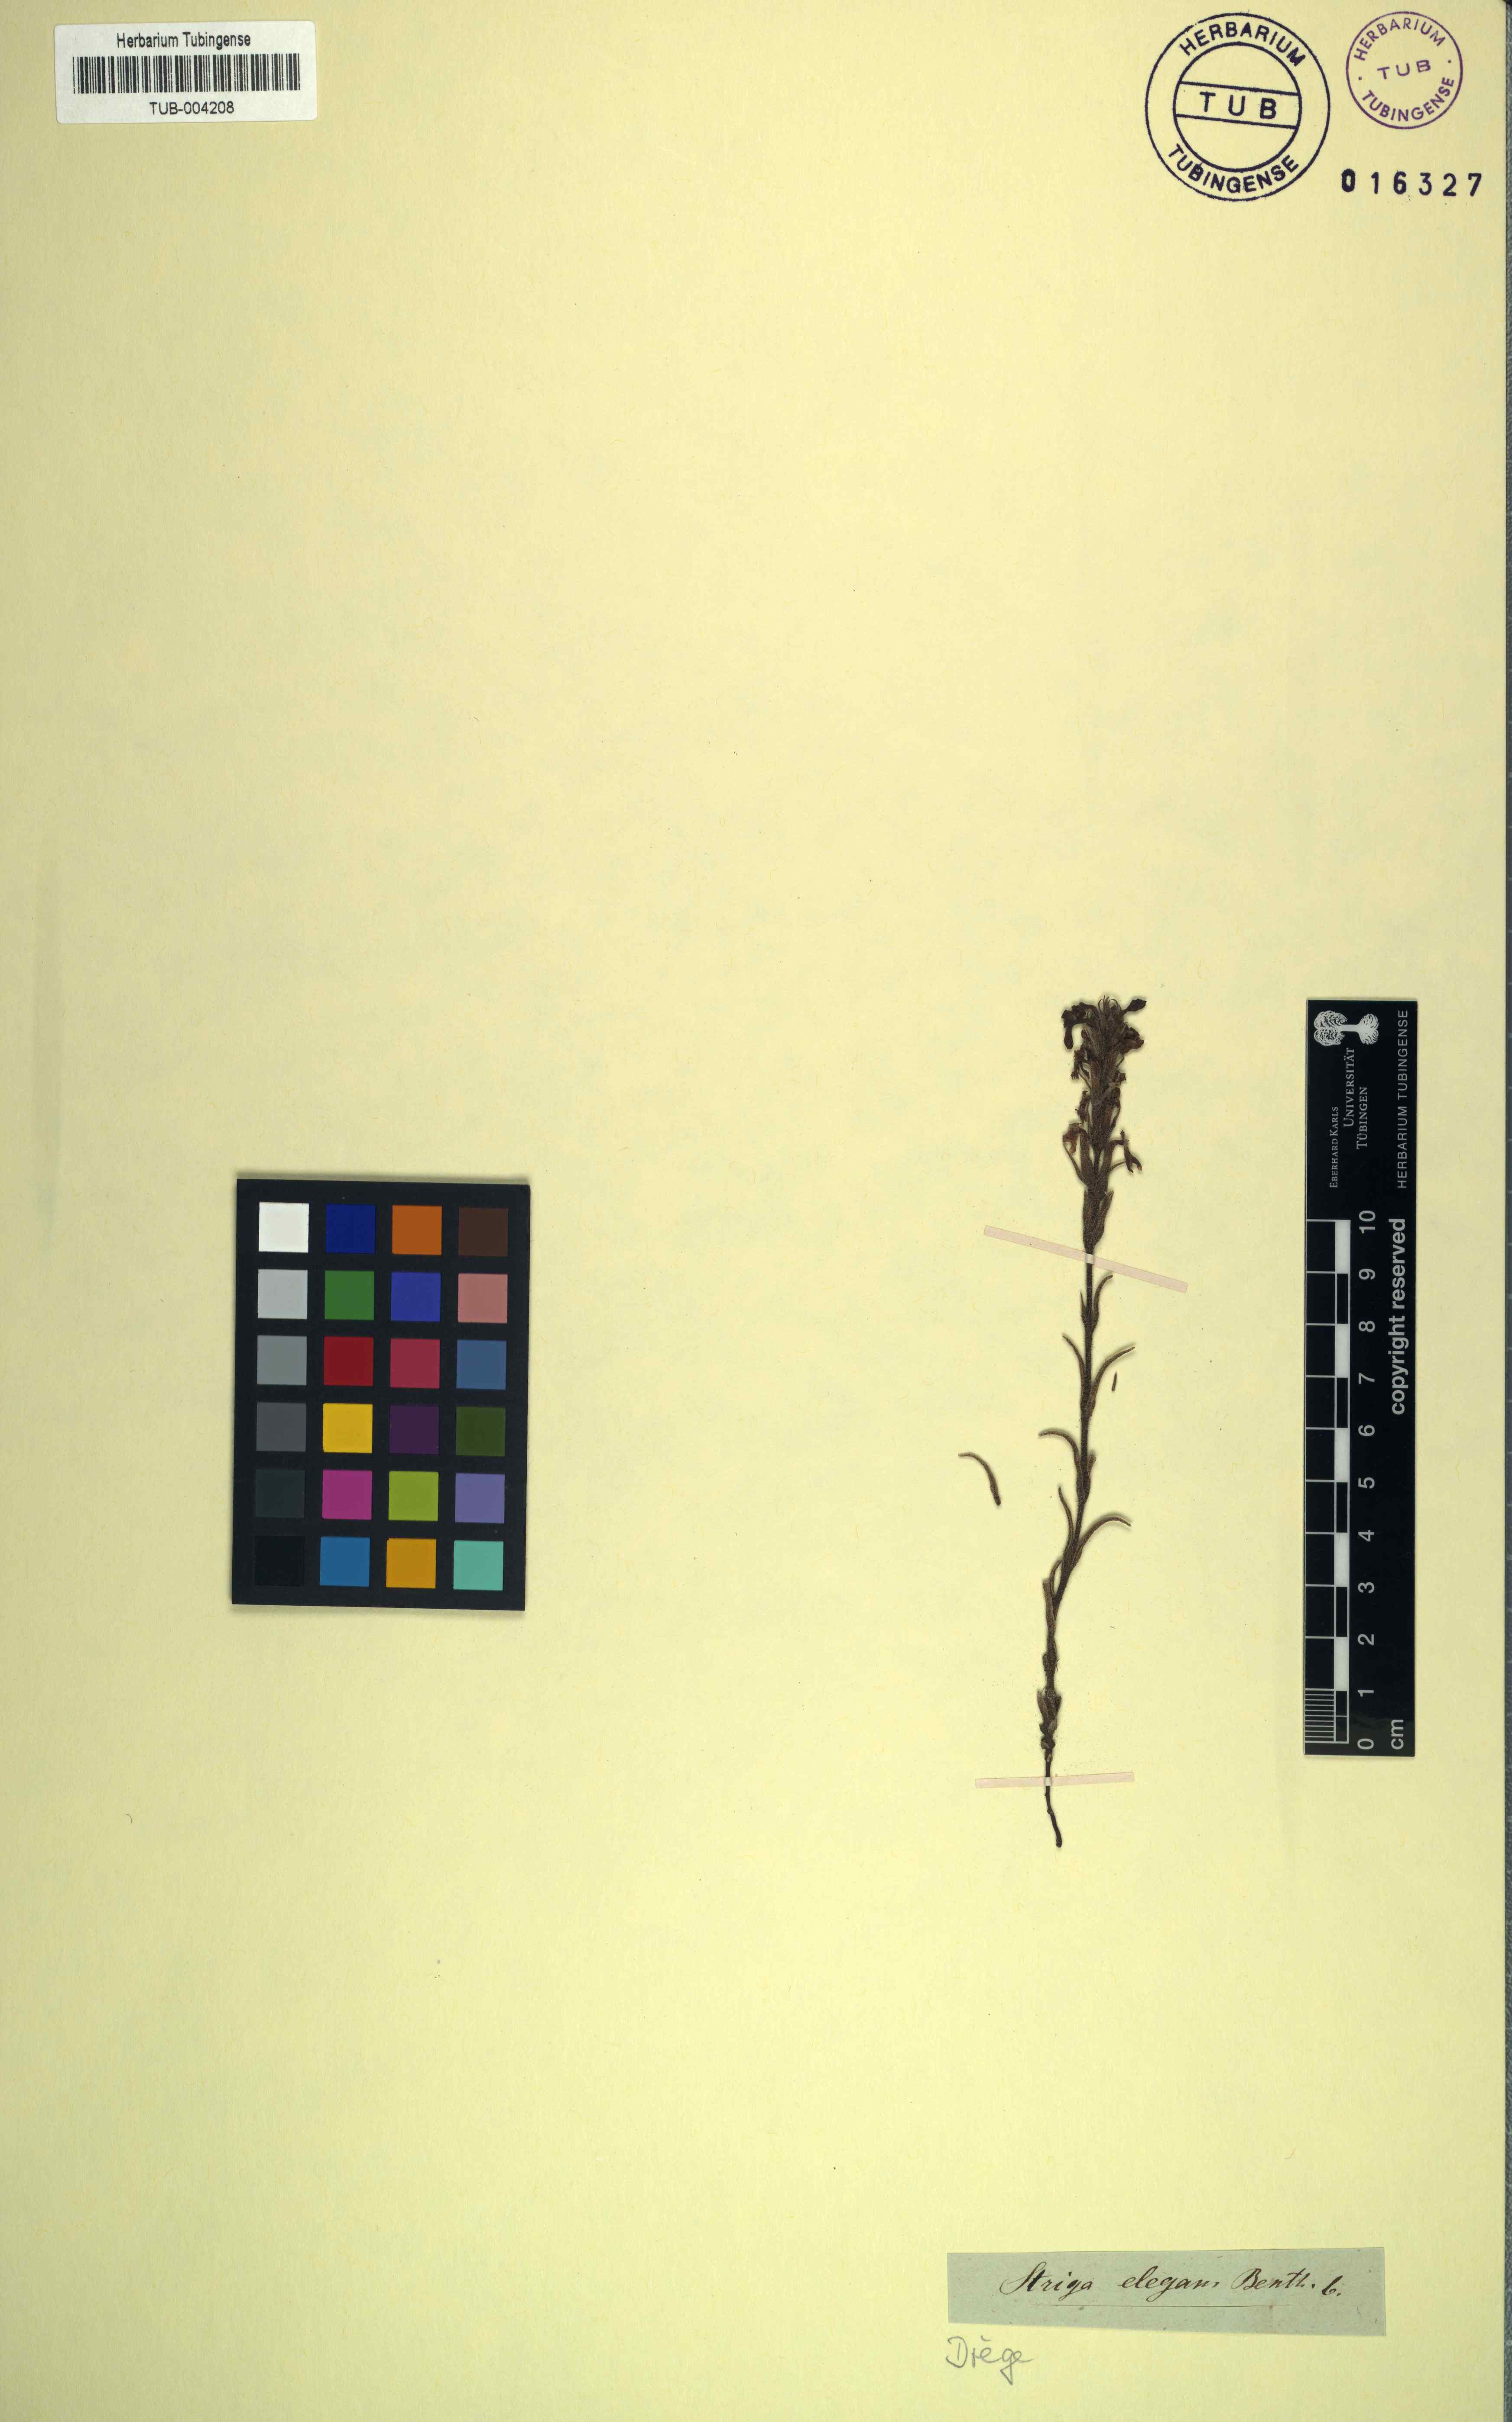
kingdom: Plantae
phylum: Tracheophyta
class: Magnoliopsida
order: Lamiales
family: Orobanchaceae
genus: Striga
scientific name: Striga elegans
